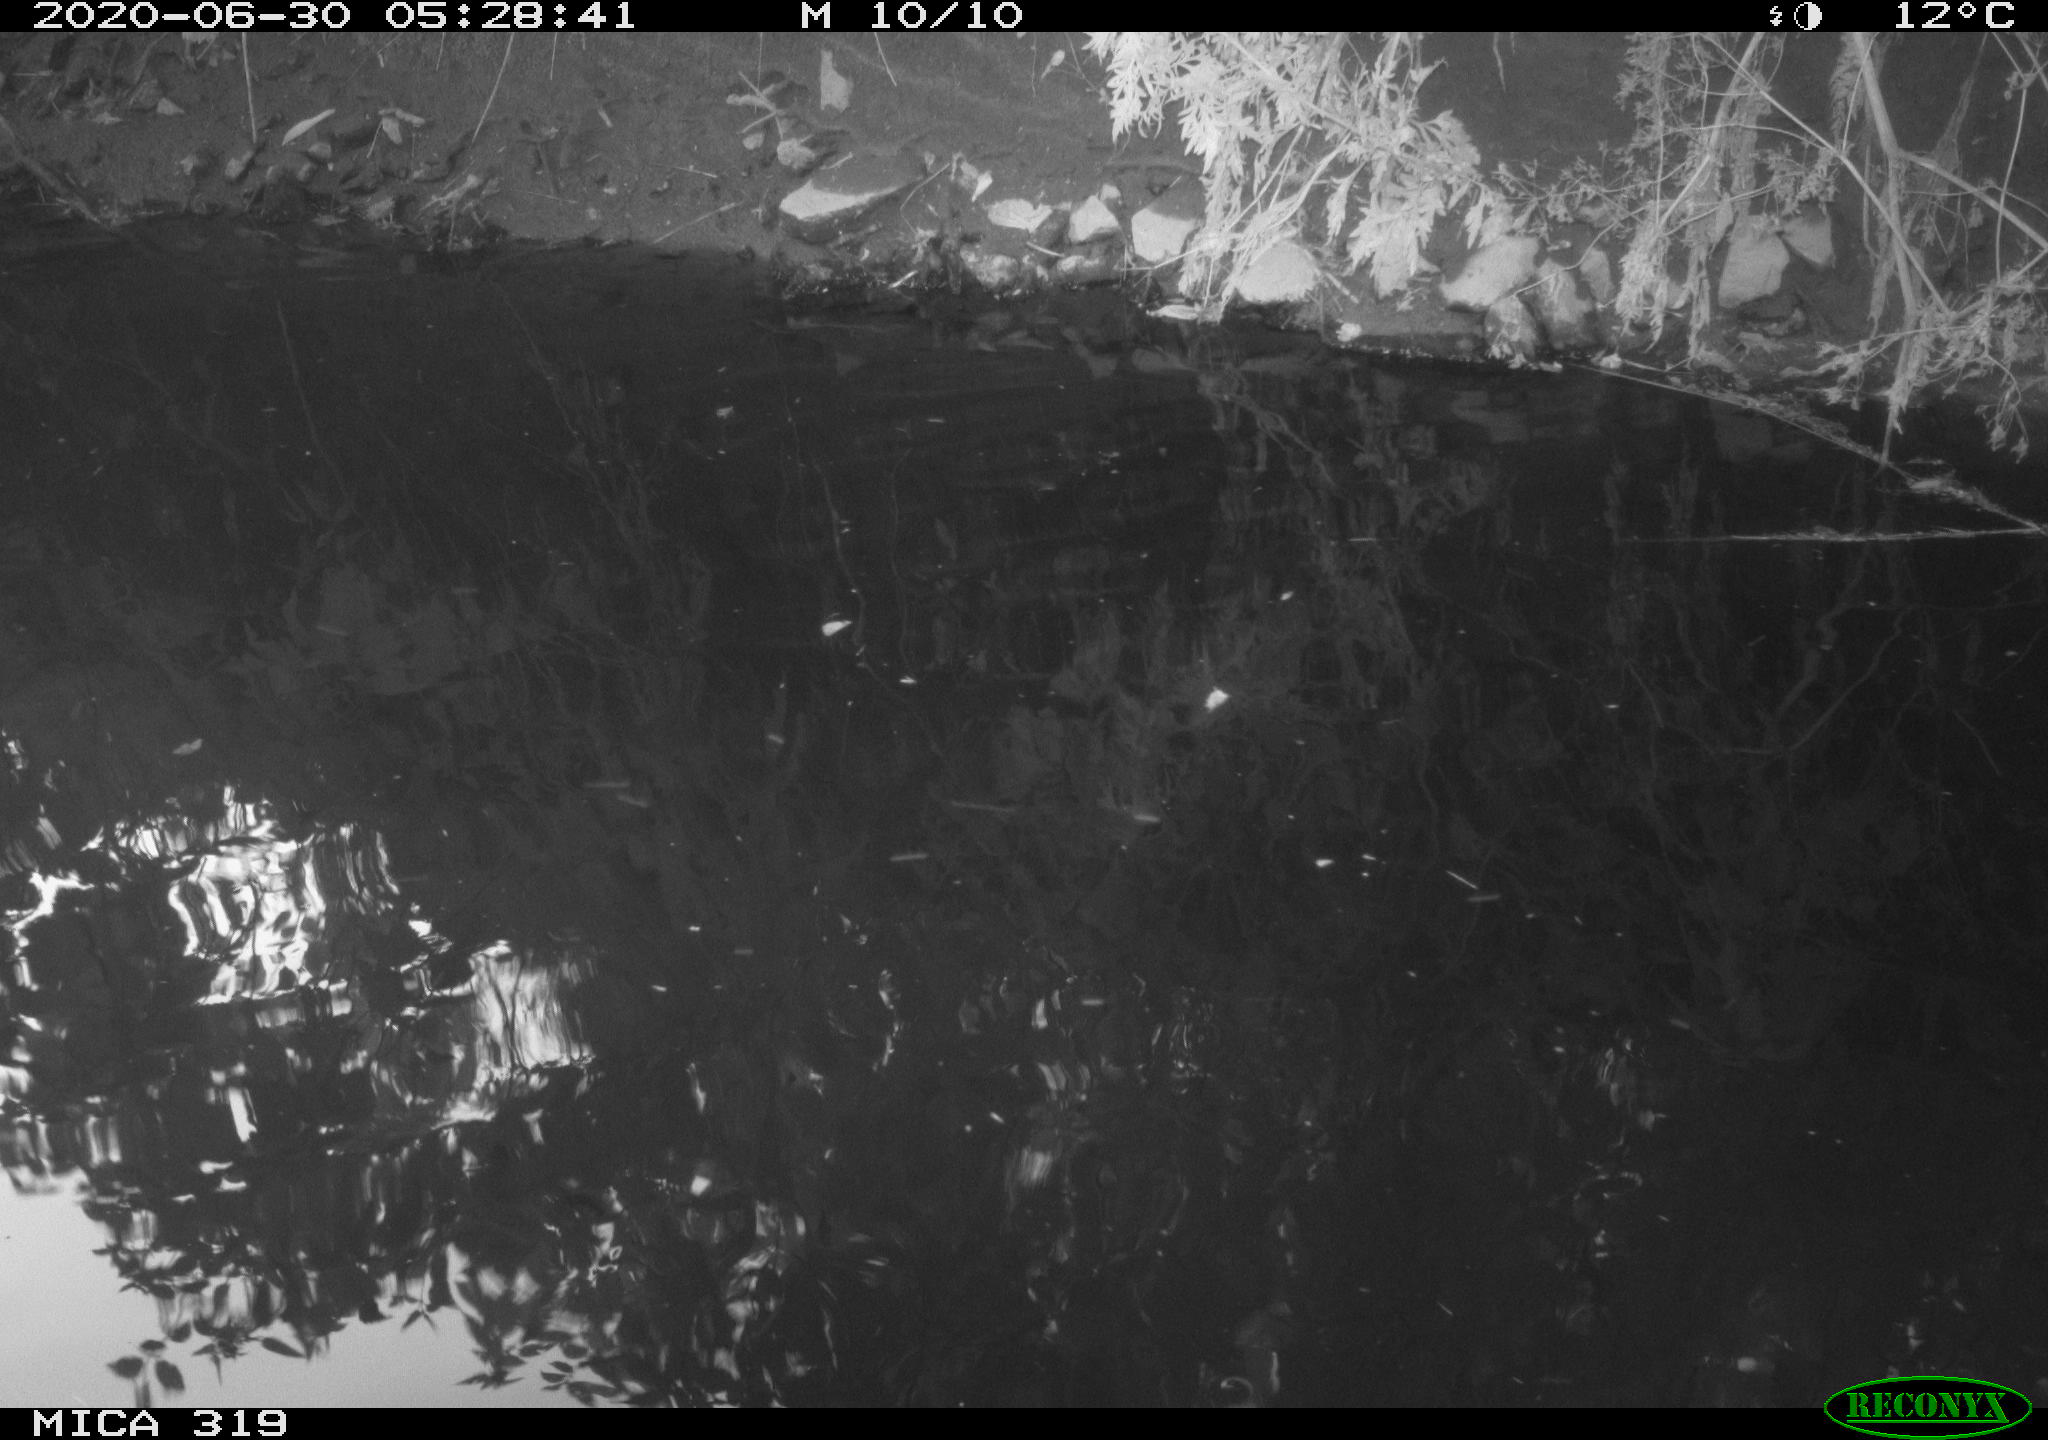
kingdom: Animalia
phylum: Chordata
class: Aves
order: Anseriformes
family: Anatidae
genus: Anas
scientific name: Anas platyrhynchos
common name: Mallard
